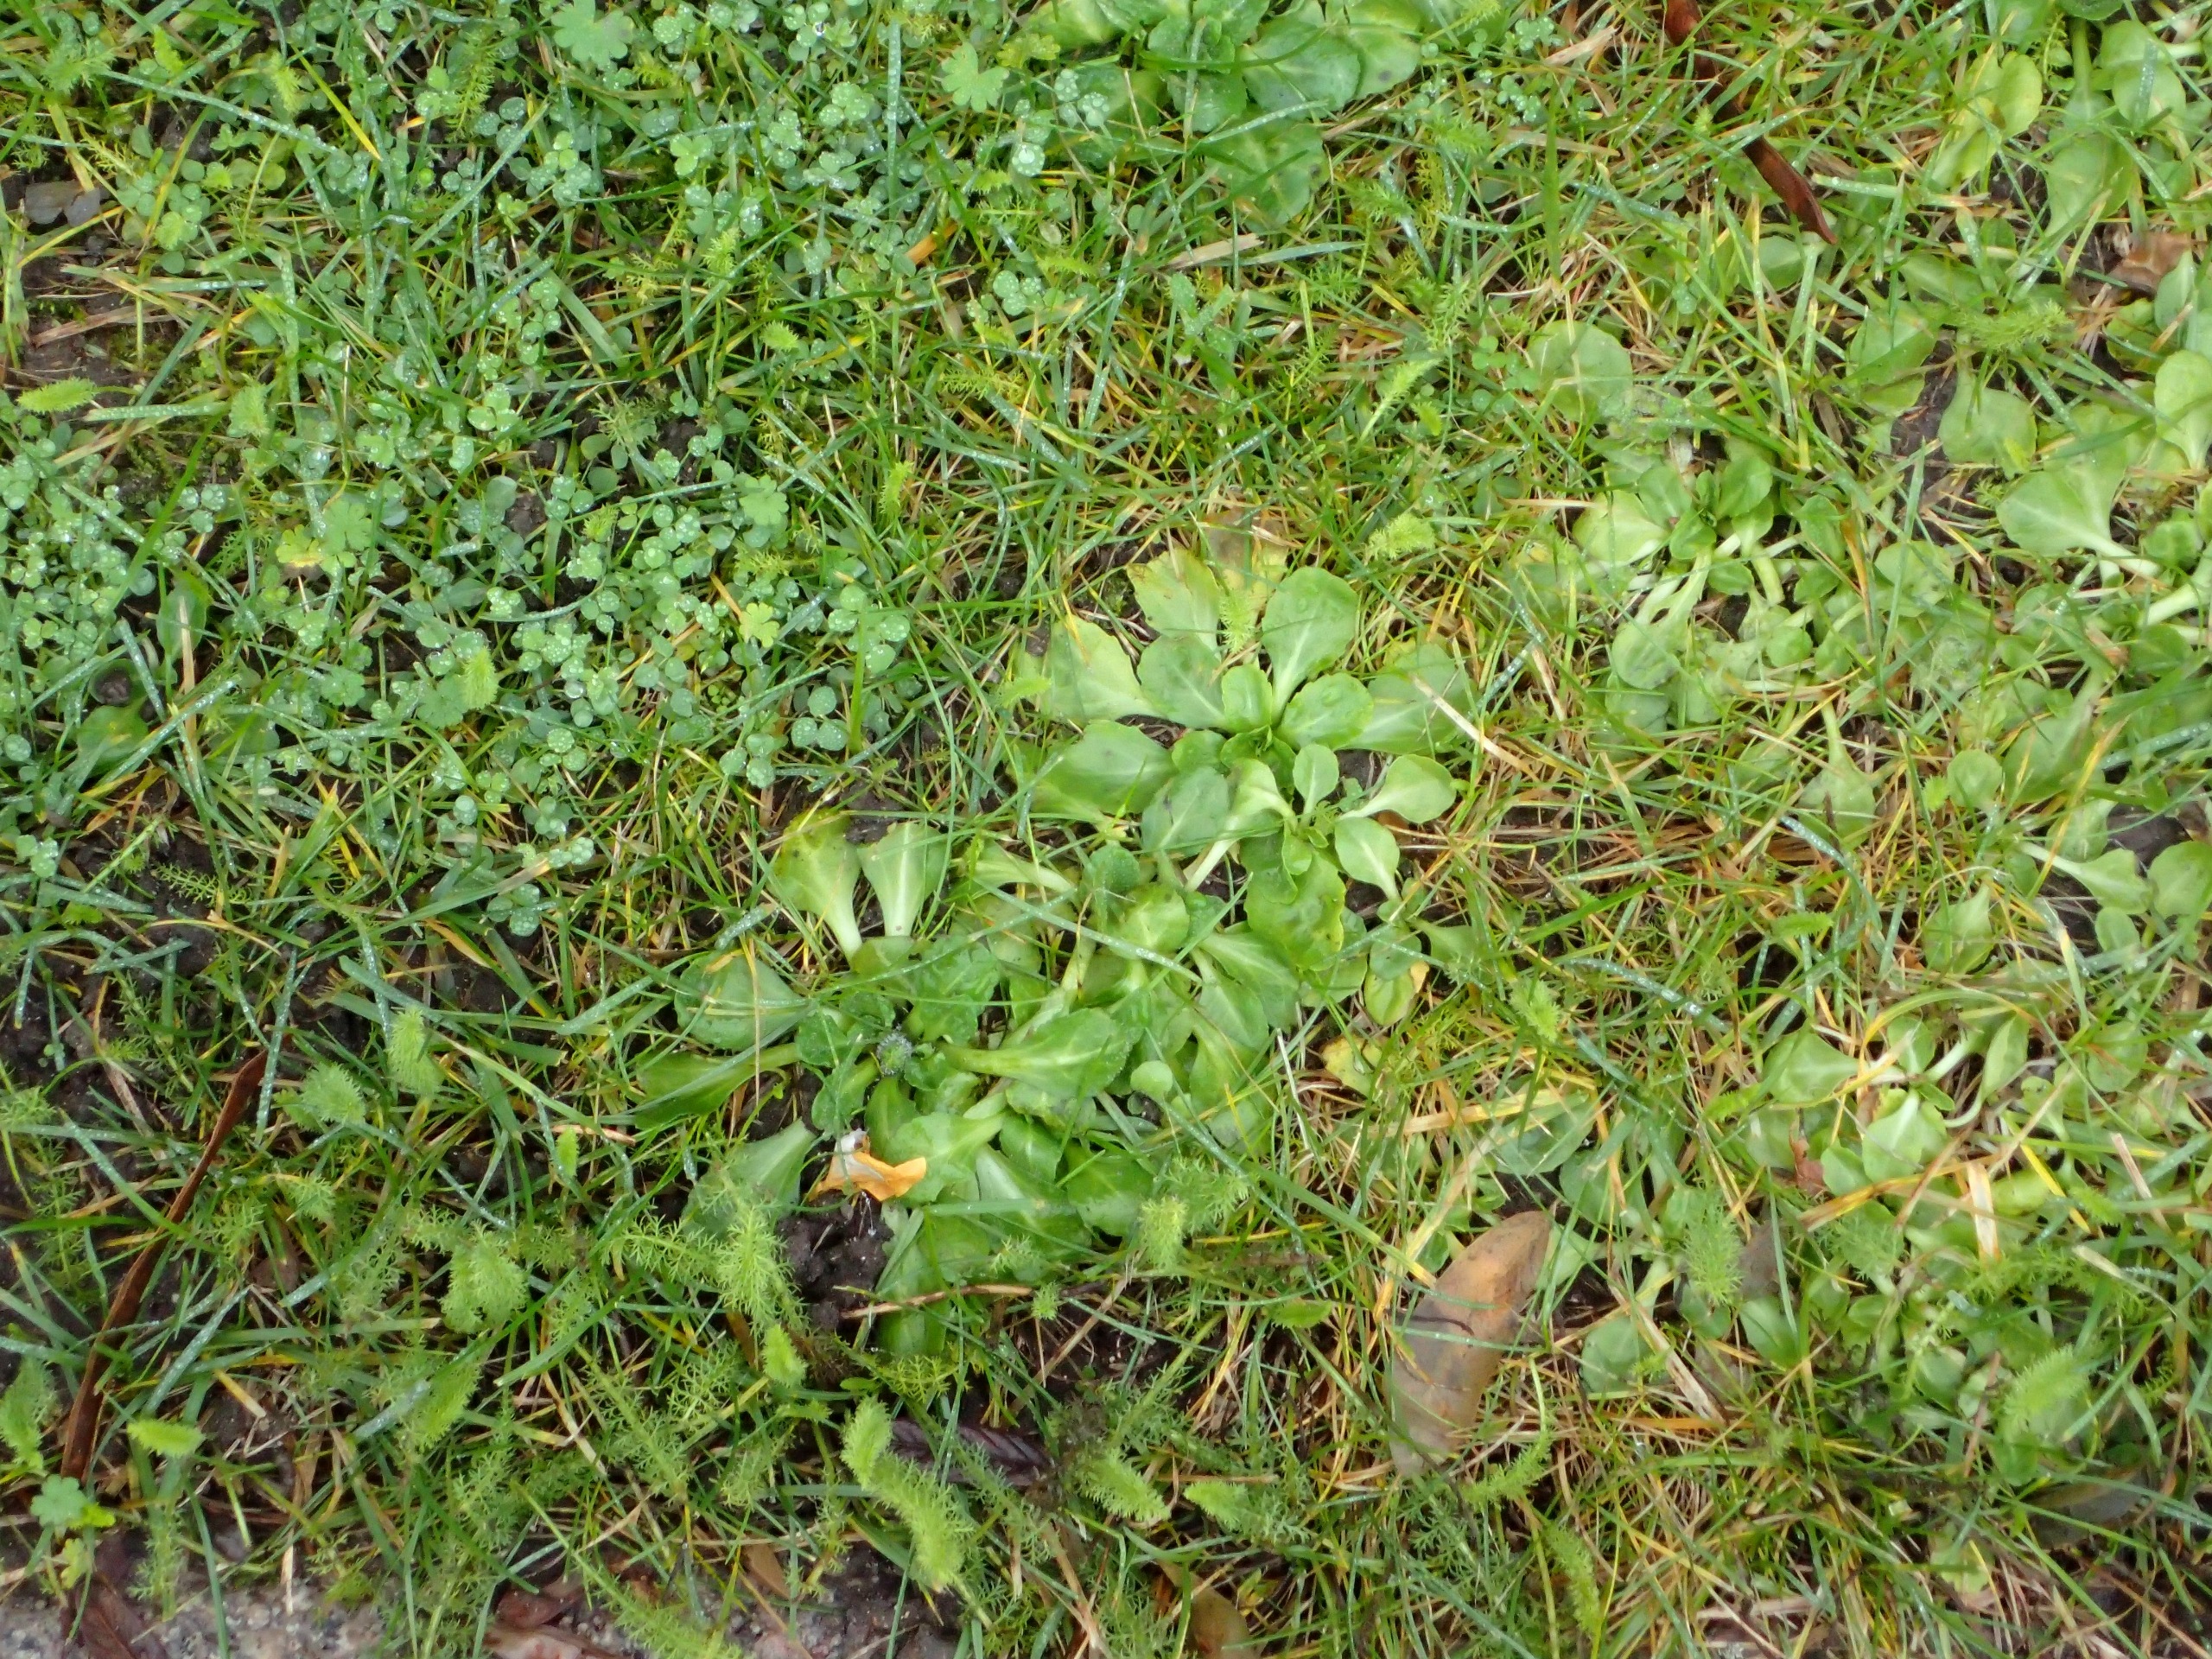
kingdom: Plantae
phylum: Tracheophyta
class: Magnoliopsida
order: Asterales
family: Asteraceae
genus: Bellis
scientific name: Bellis perennis
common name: Tusindfryd
